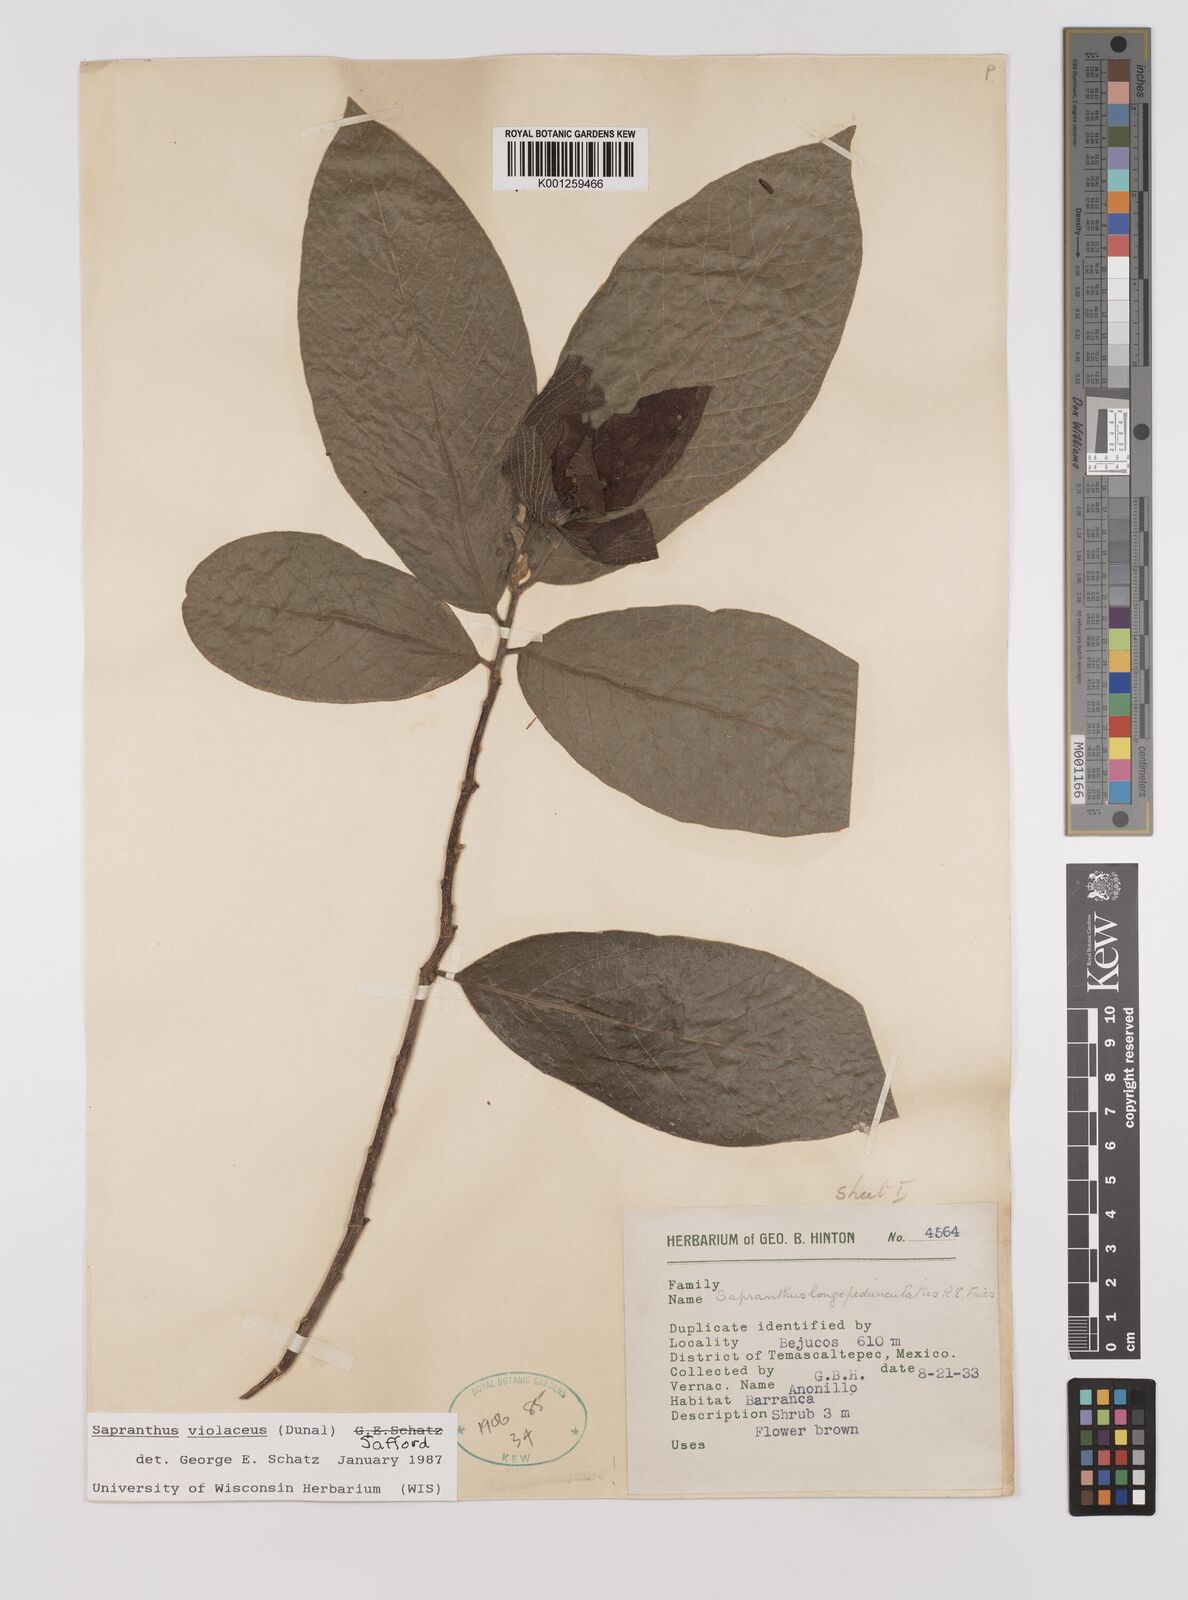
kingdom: Plantae
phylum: Tracheophyta
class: Magnoliopsida
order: Magnoliales
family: Annonaceae
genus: Sapranthus
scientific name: Sapranthus
